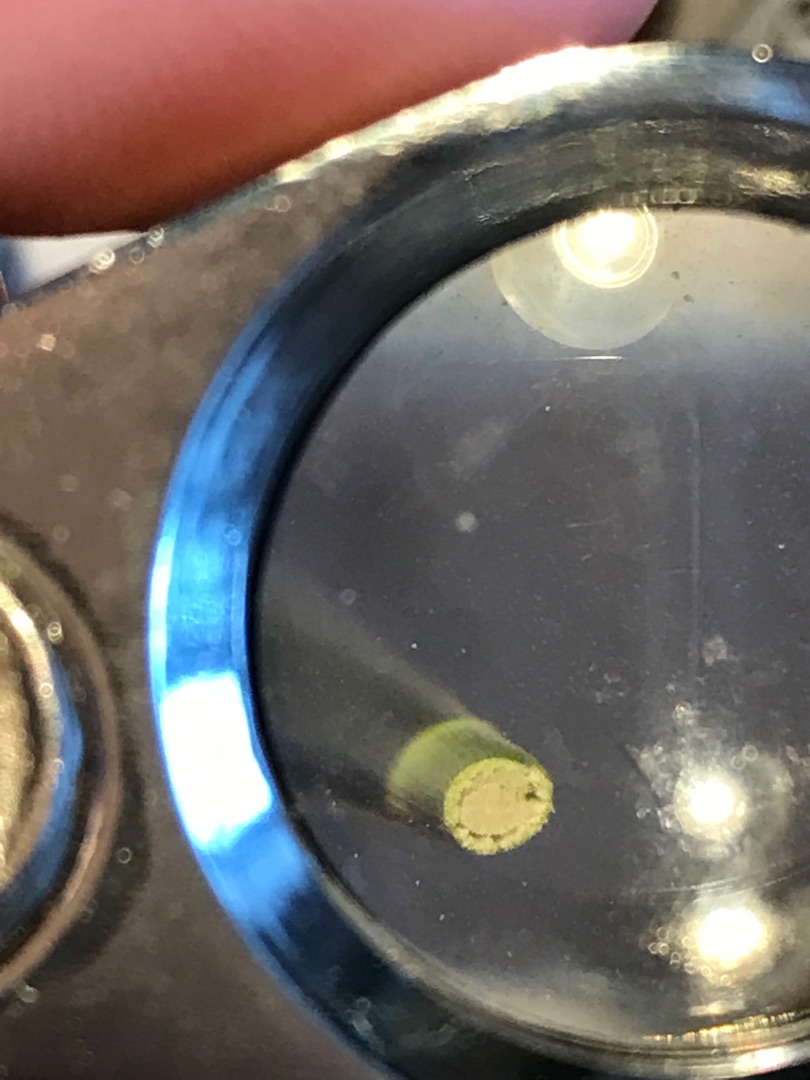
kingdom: Plantae
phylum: Tracheophyta
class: Liliopsida
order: Poales
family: Juncaceae
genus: Juncus
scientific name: Juncus conglomeratus
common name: Knop-siv
